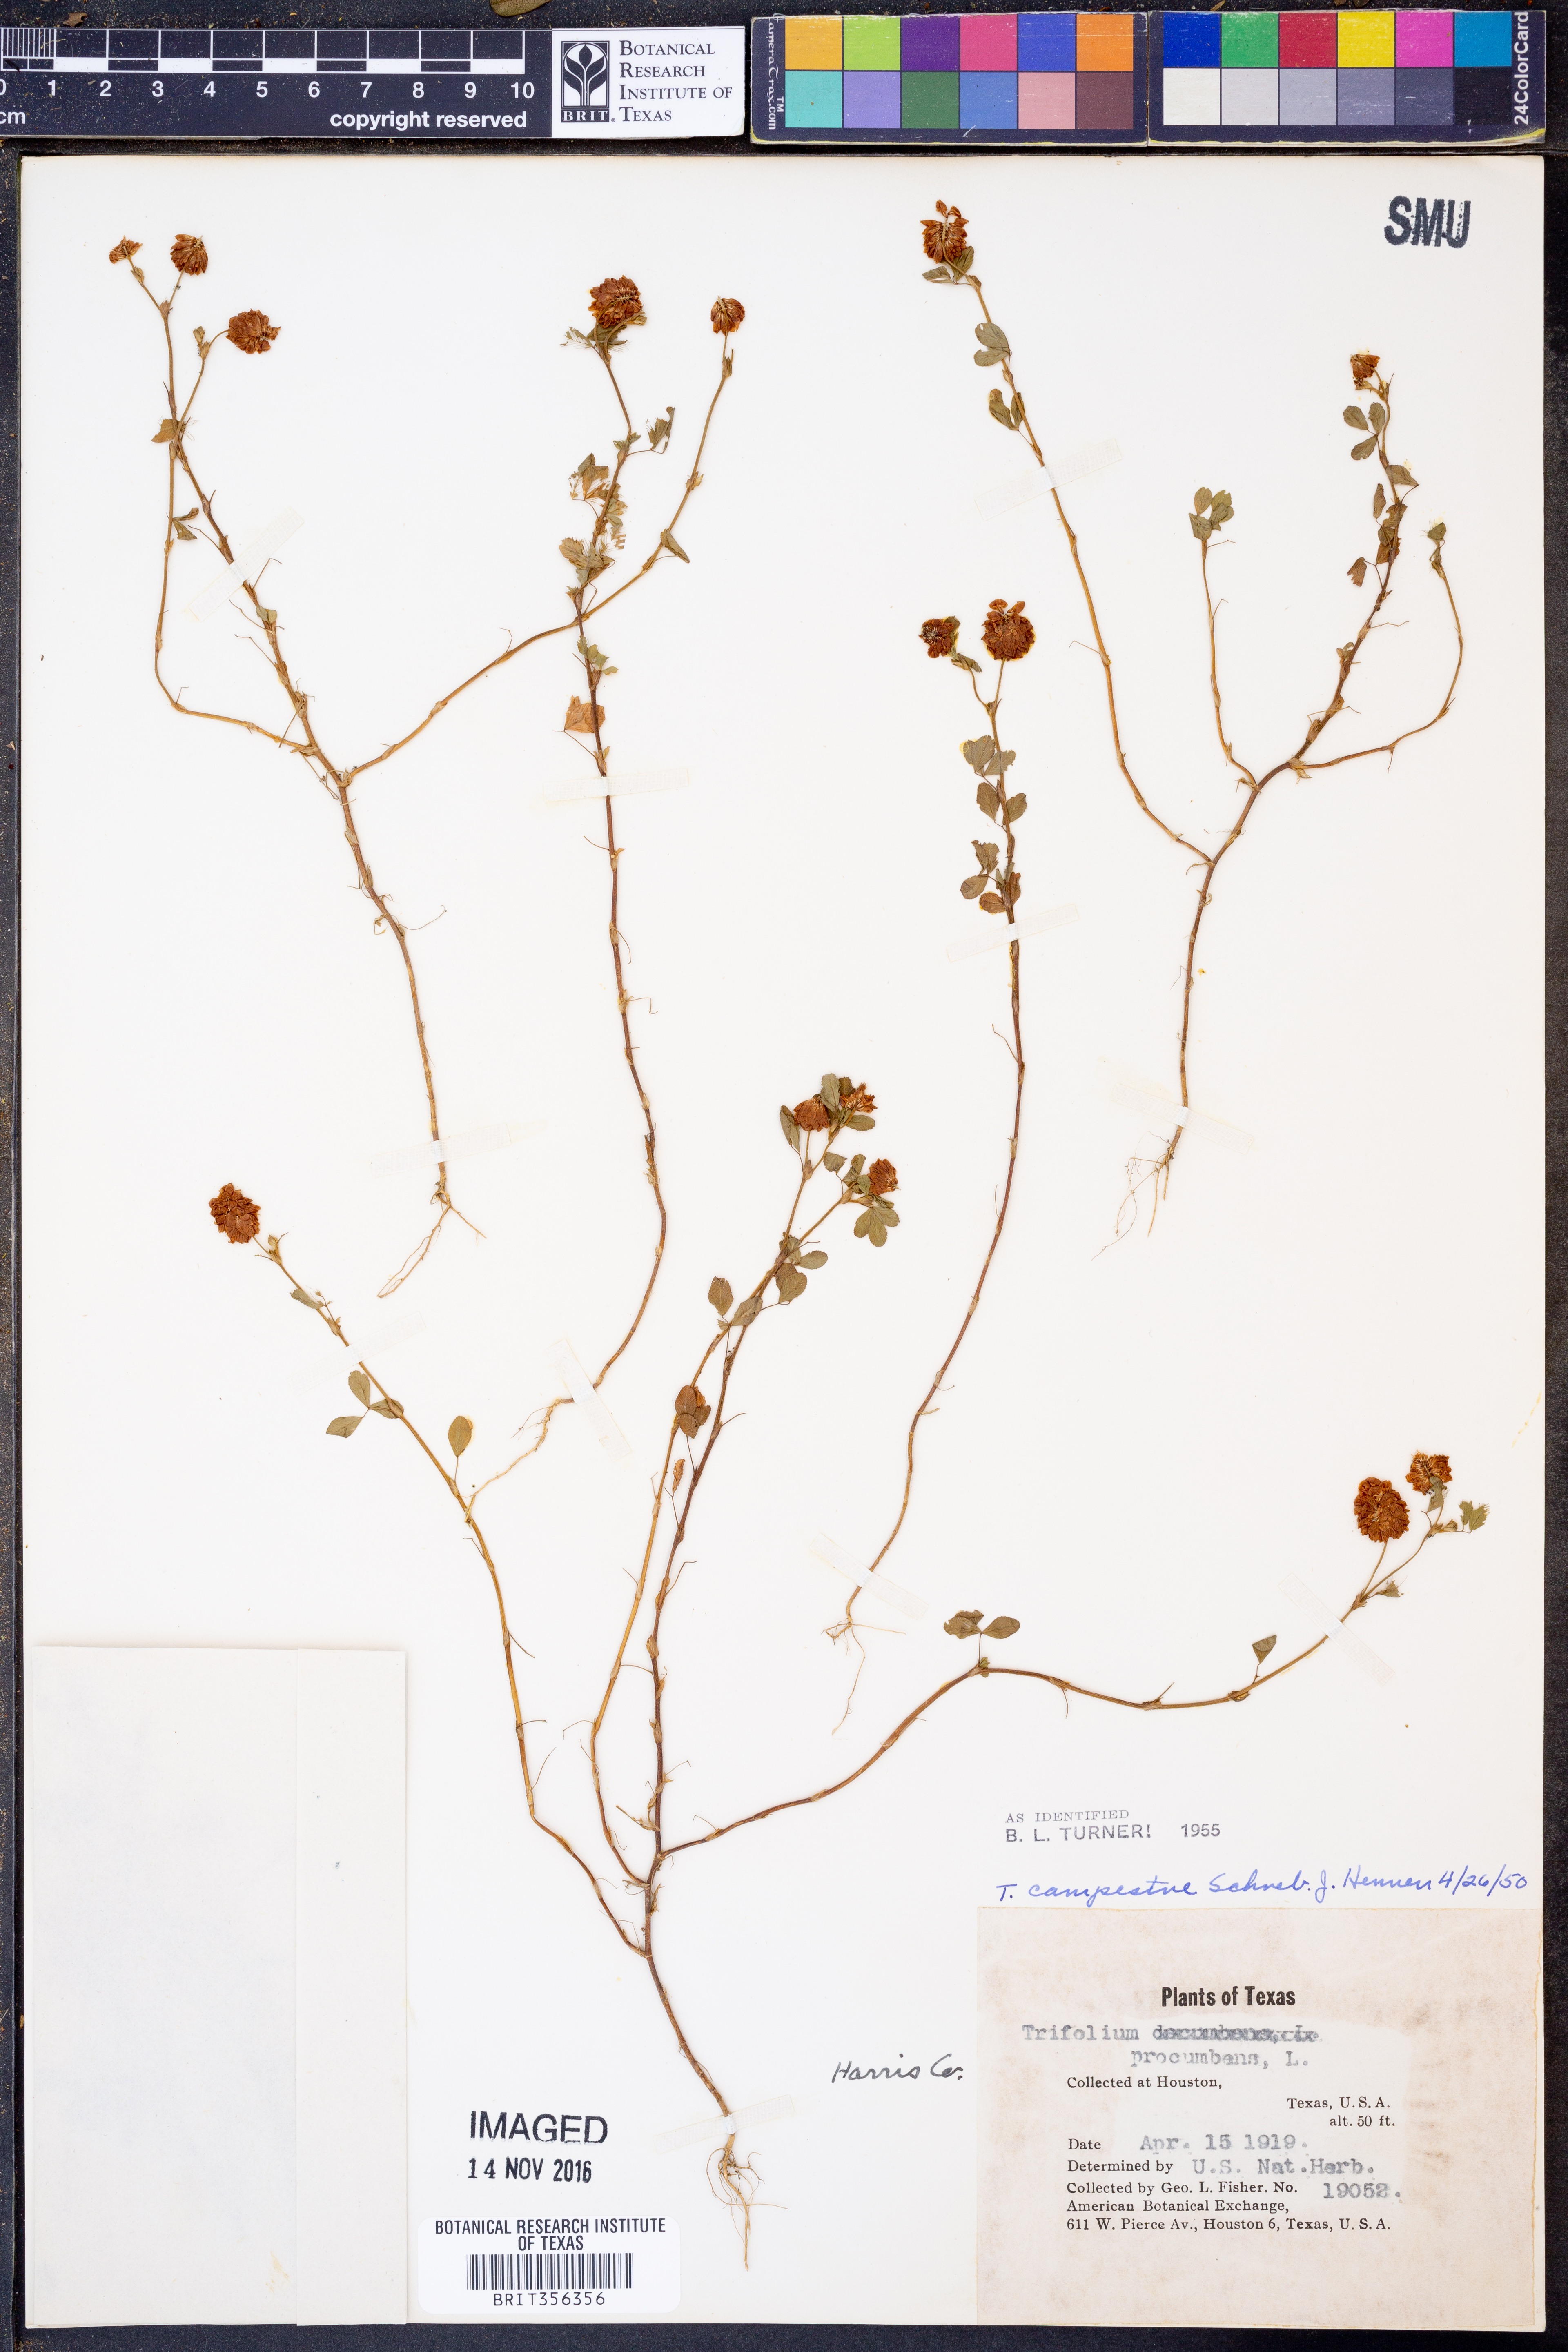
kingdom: Plantae
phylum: Tracheophyta
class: Magnoliopsida
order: Fabales
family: Fabaceae
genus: Trifolium
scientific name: Trifolium campestre
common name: Field clover
